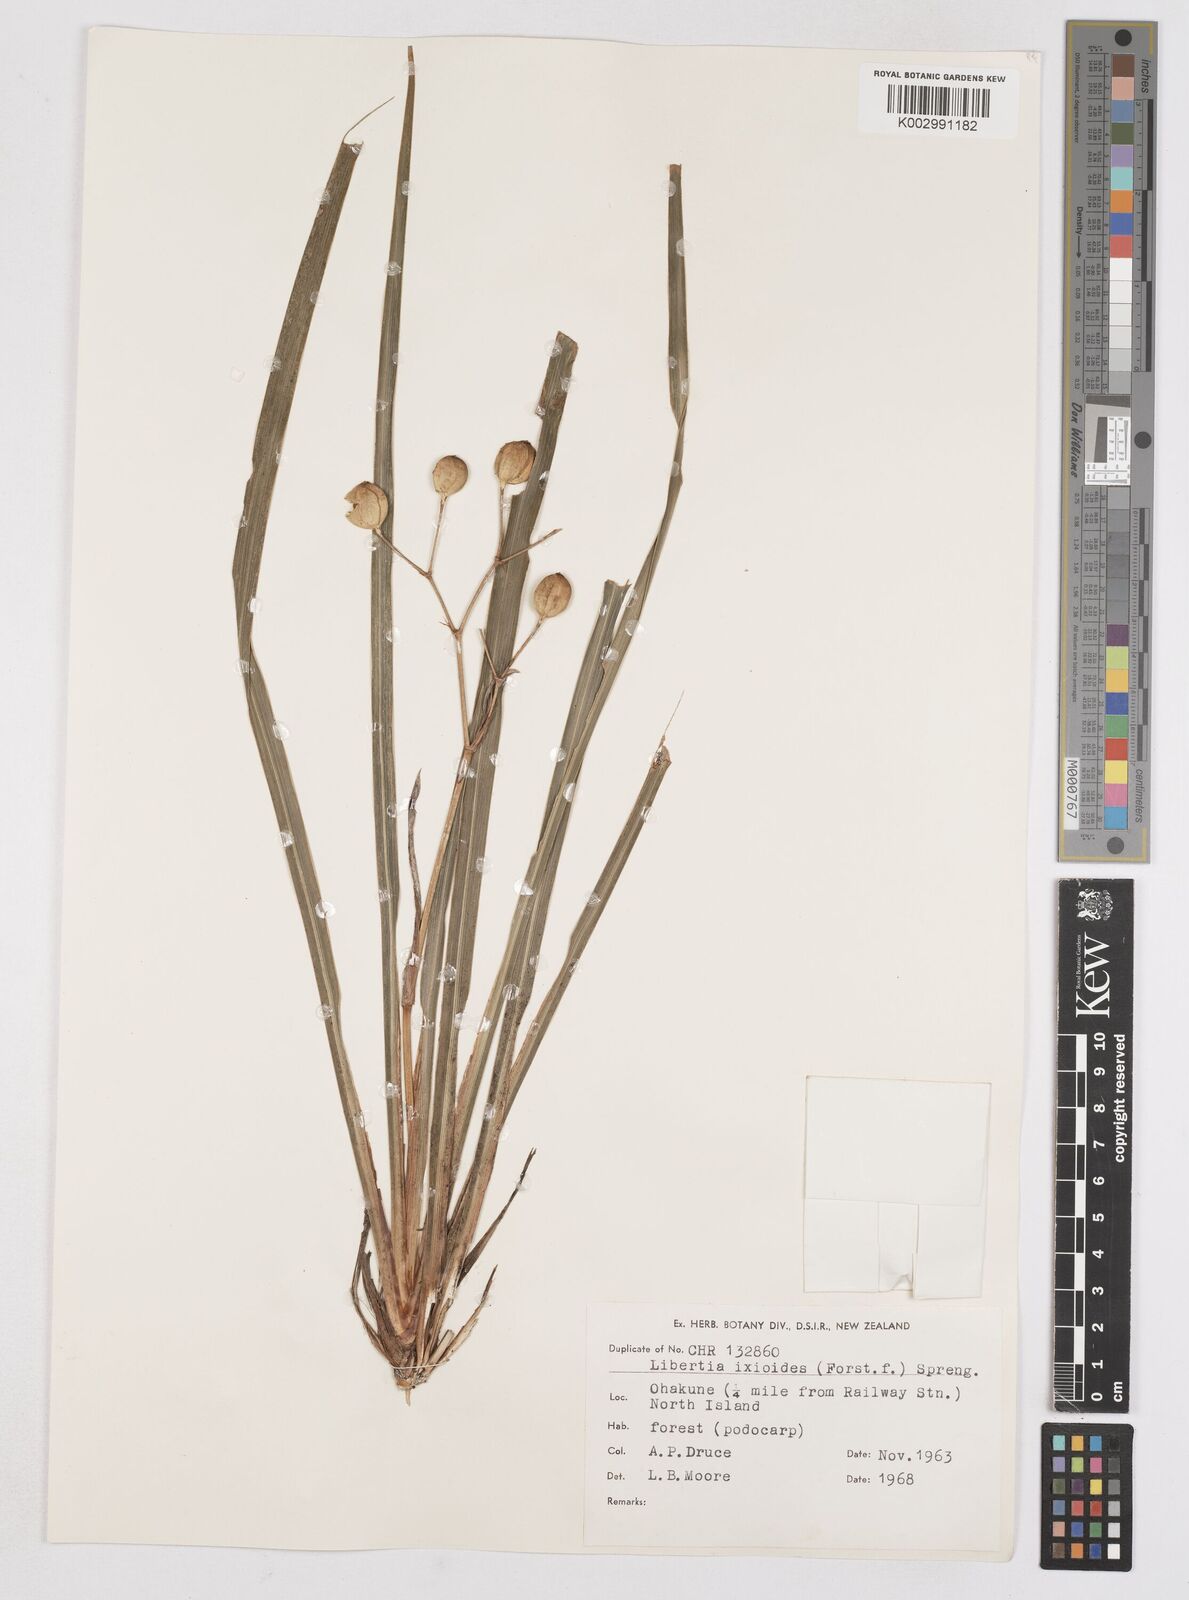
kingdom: Plantae
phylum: Tracheophyta
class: Liliopsida
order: Asparagales
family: Iridaceae
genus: Libertia
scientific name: Libertia ixioides
